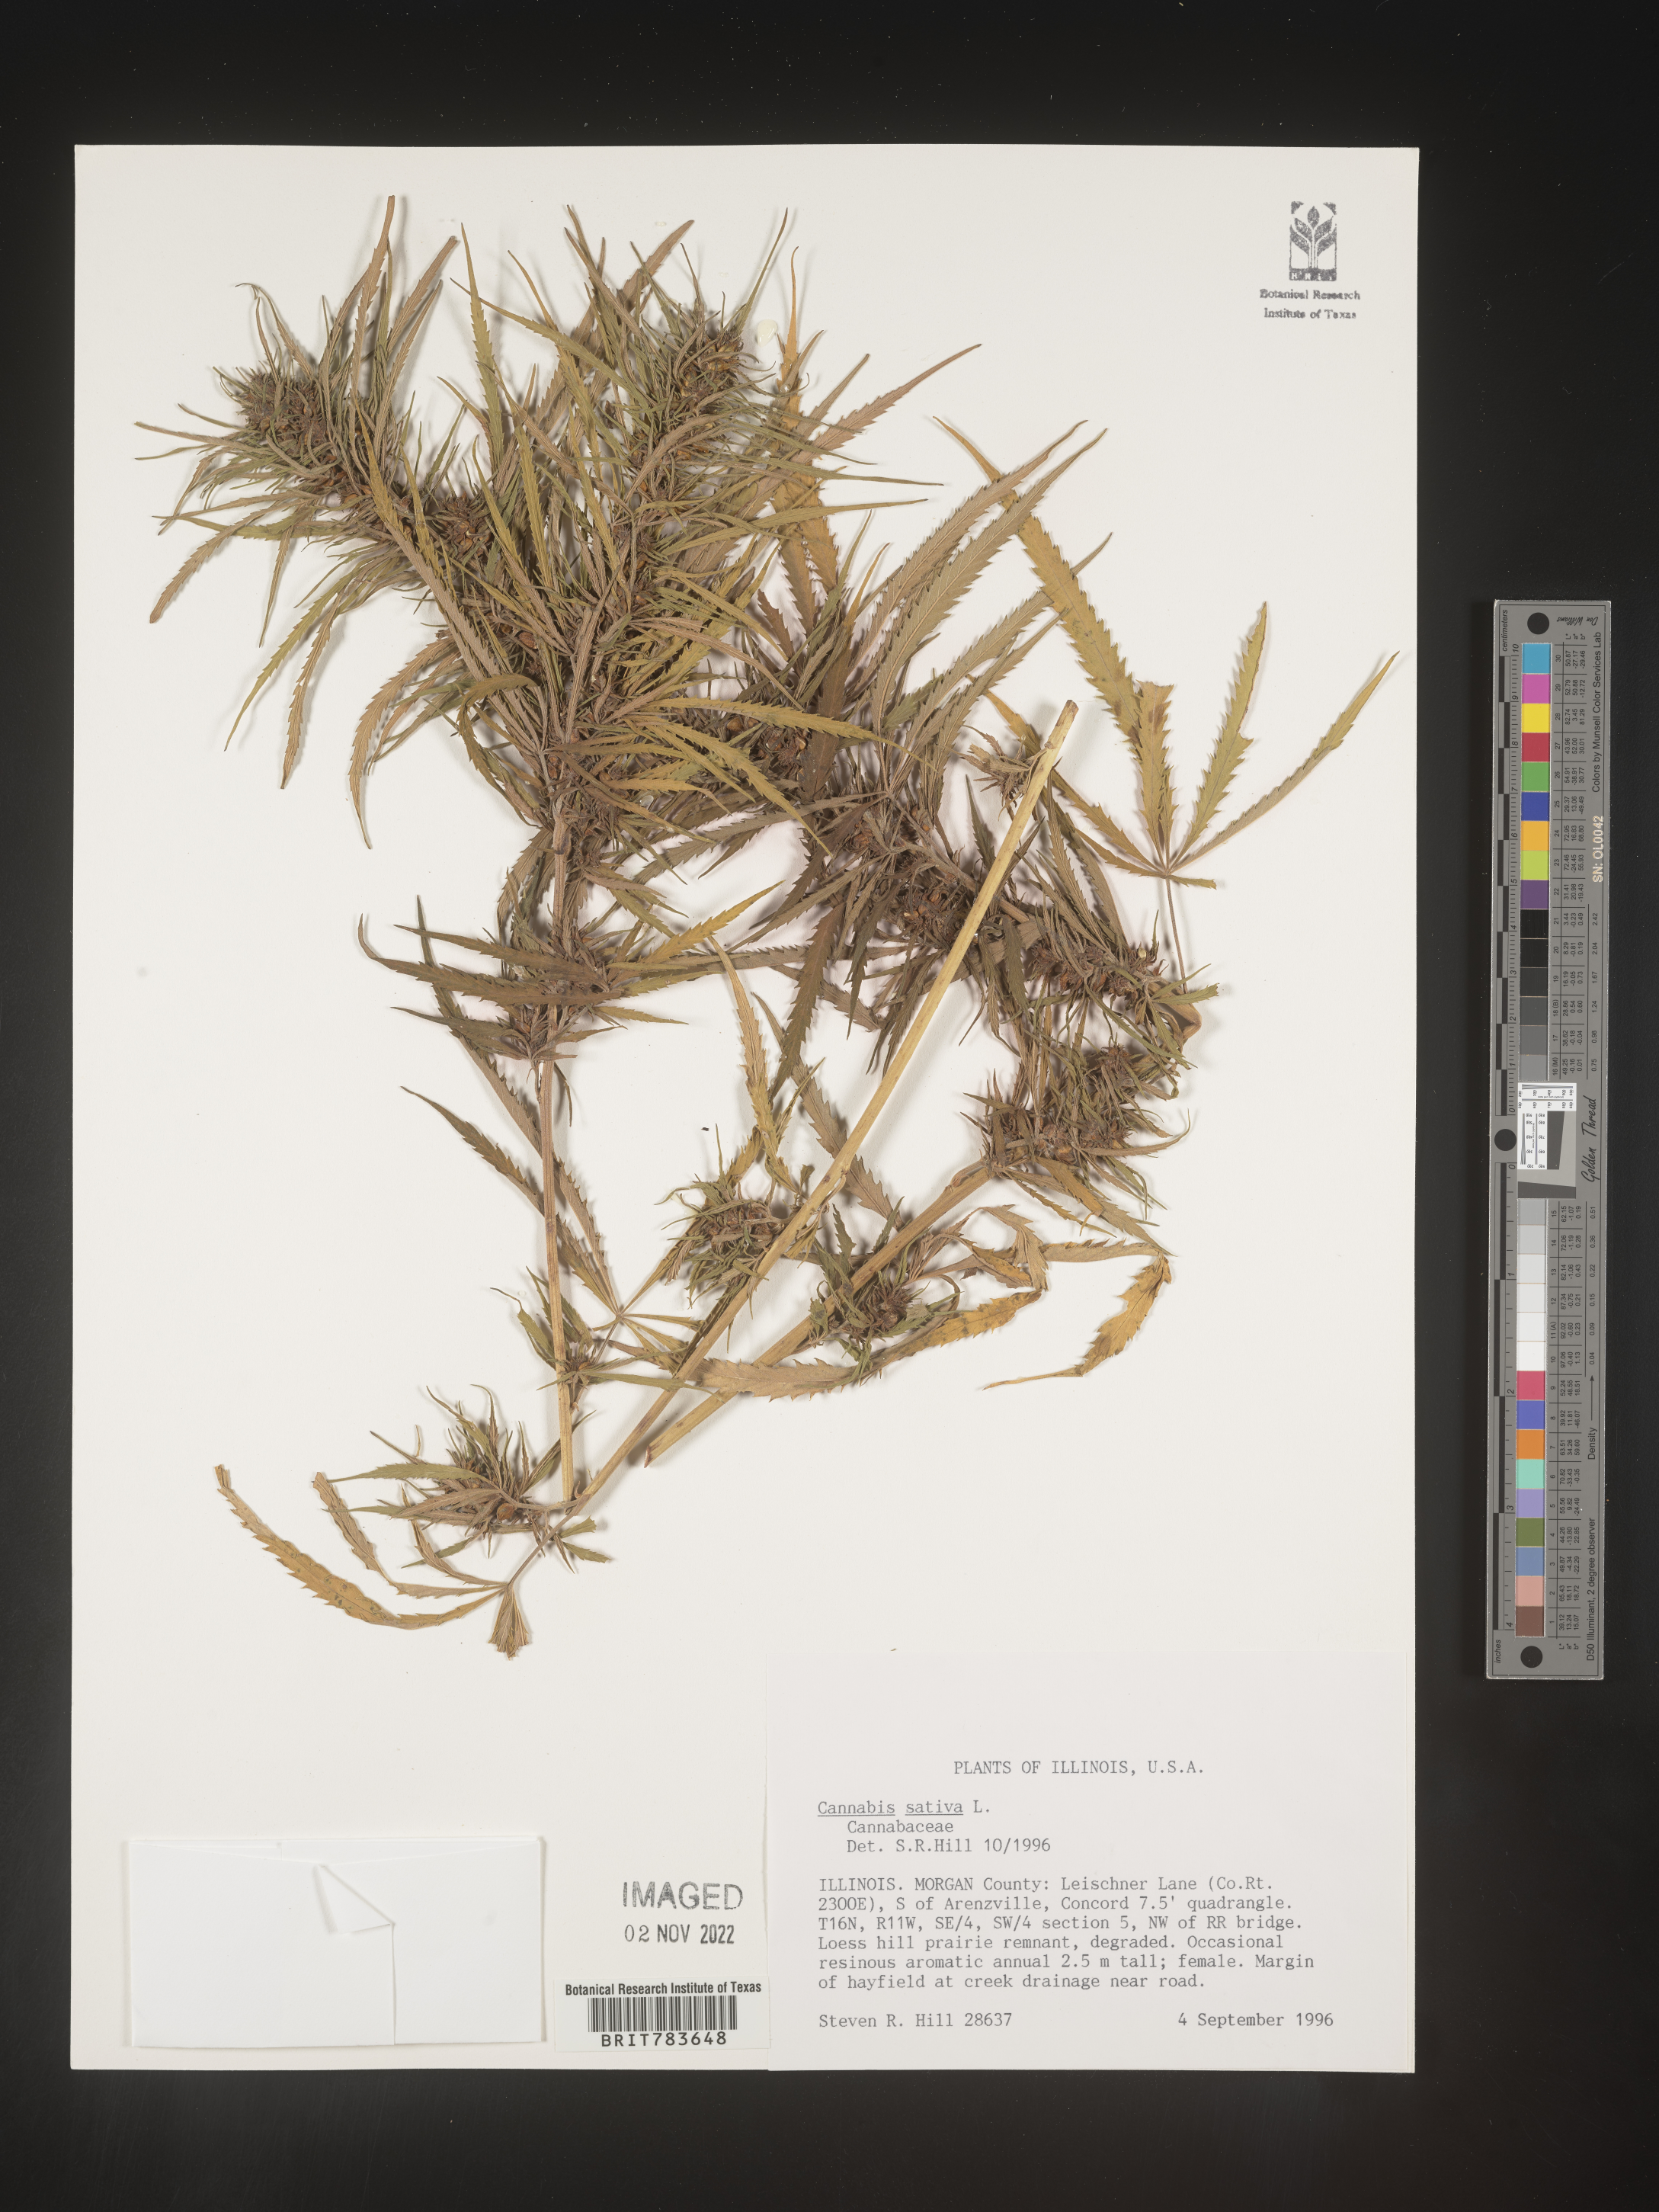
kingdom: Plantae
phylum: Tracheophyta
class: Magnoliopsida
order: Rosales
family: Cannabaceae
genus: Cannabis
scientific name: Cannabis sativa
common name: Hemp
